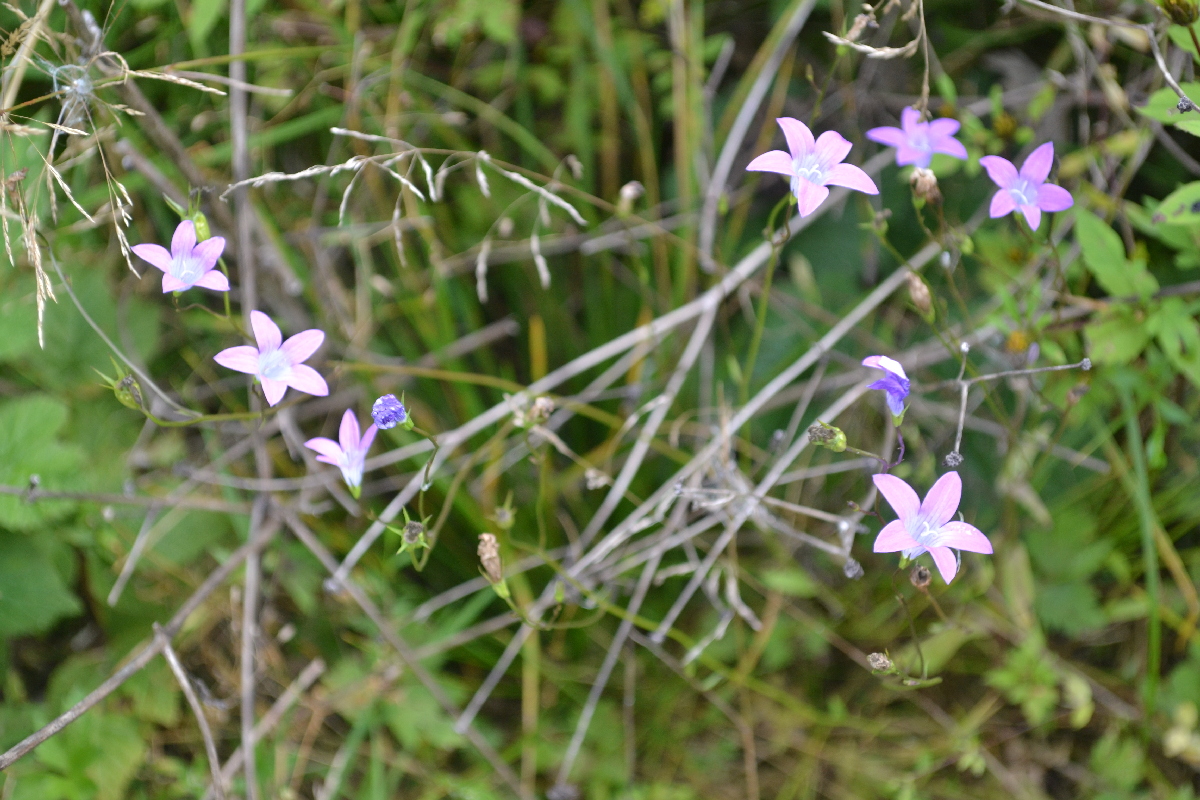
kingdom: Plantae
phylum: Tracheophyta
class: Magnoliopsida
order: Asterales
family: Campanulaceae
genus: Campanula
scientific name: Campanula patula
